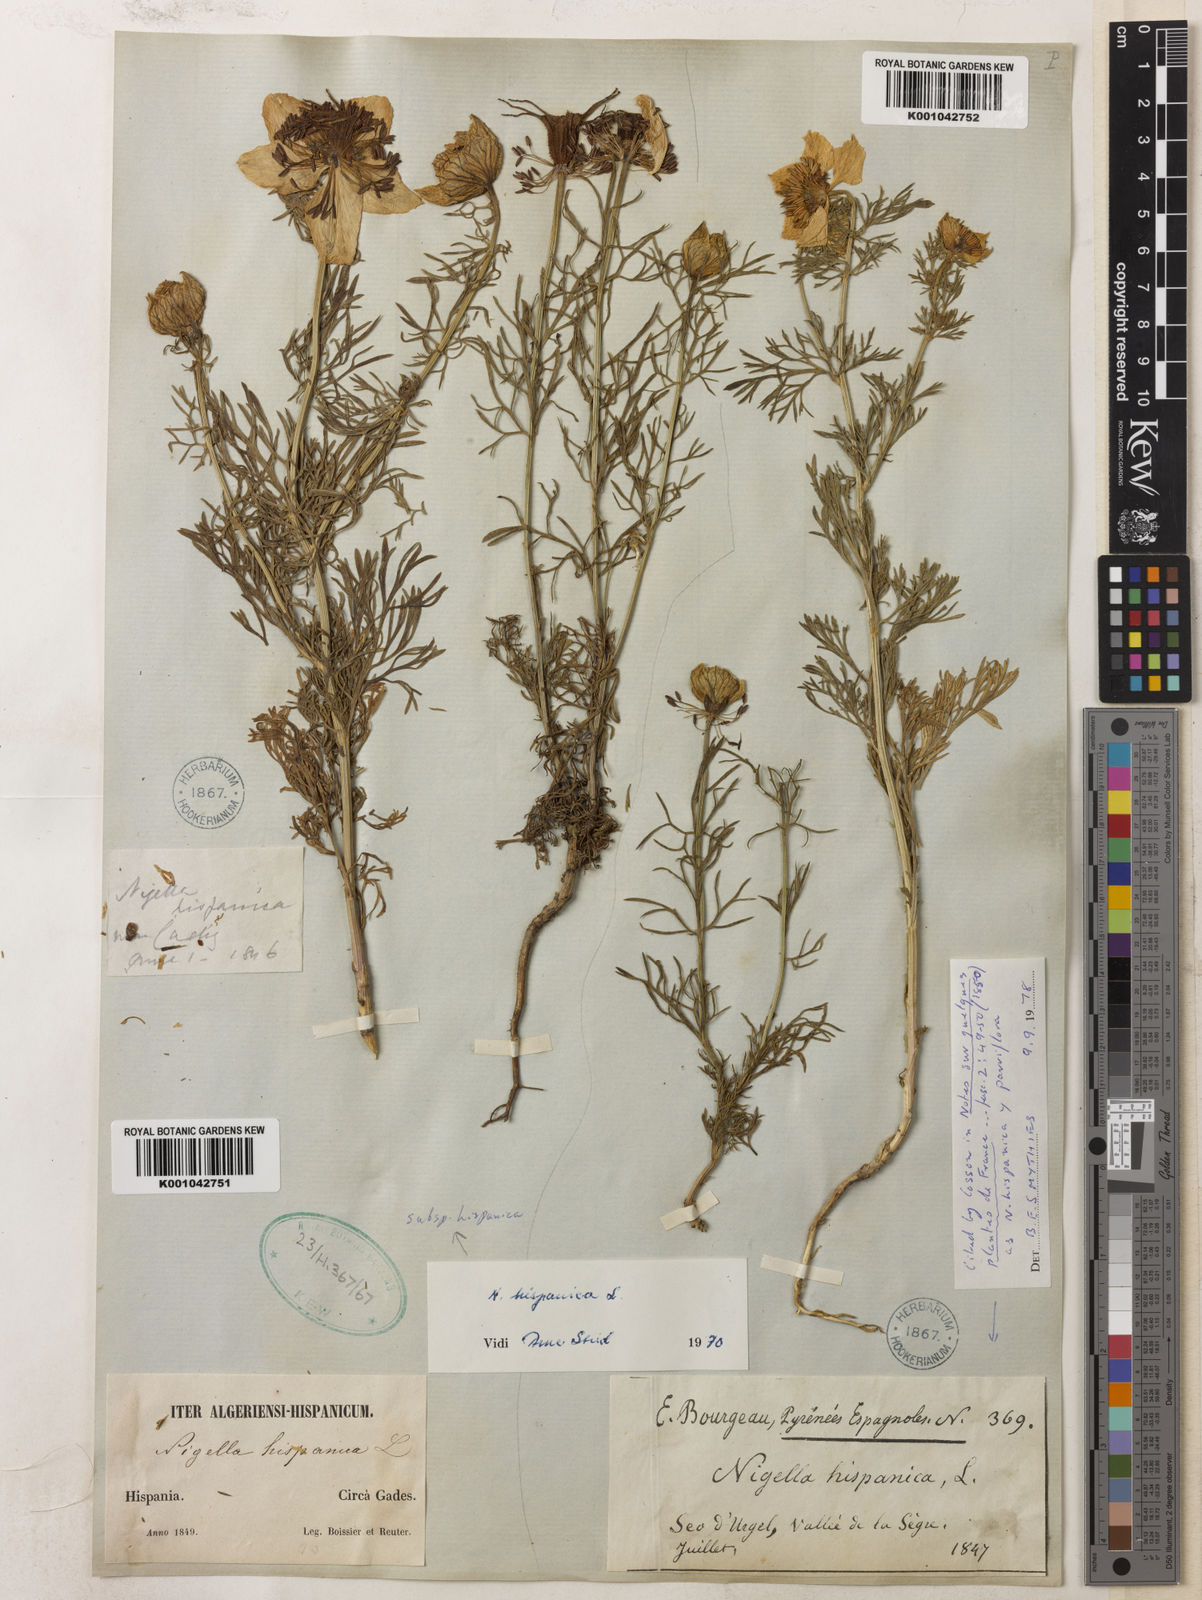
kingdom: Plantae
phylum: Tracheophyta
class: Magnoliopsida
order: Ranunculales
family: Ranunculaceae
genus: Nigella
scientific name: Nigella hispanica
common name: Fennel-flower
